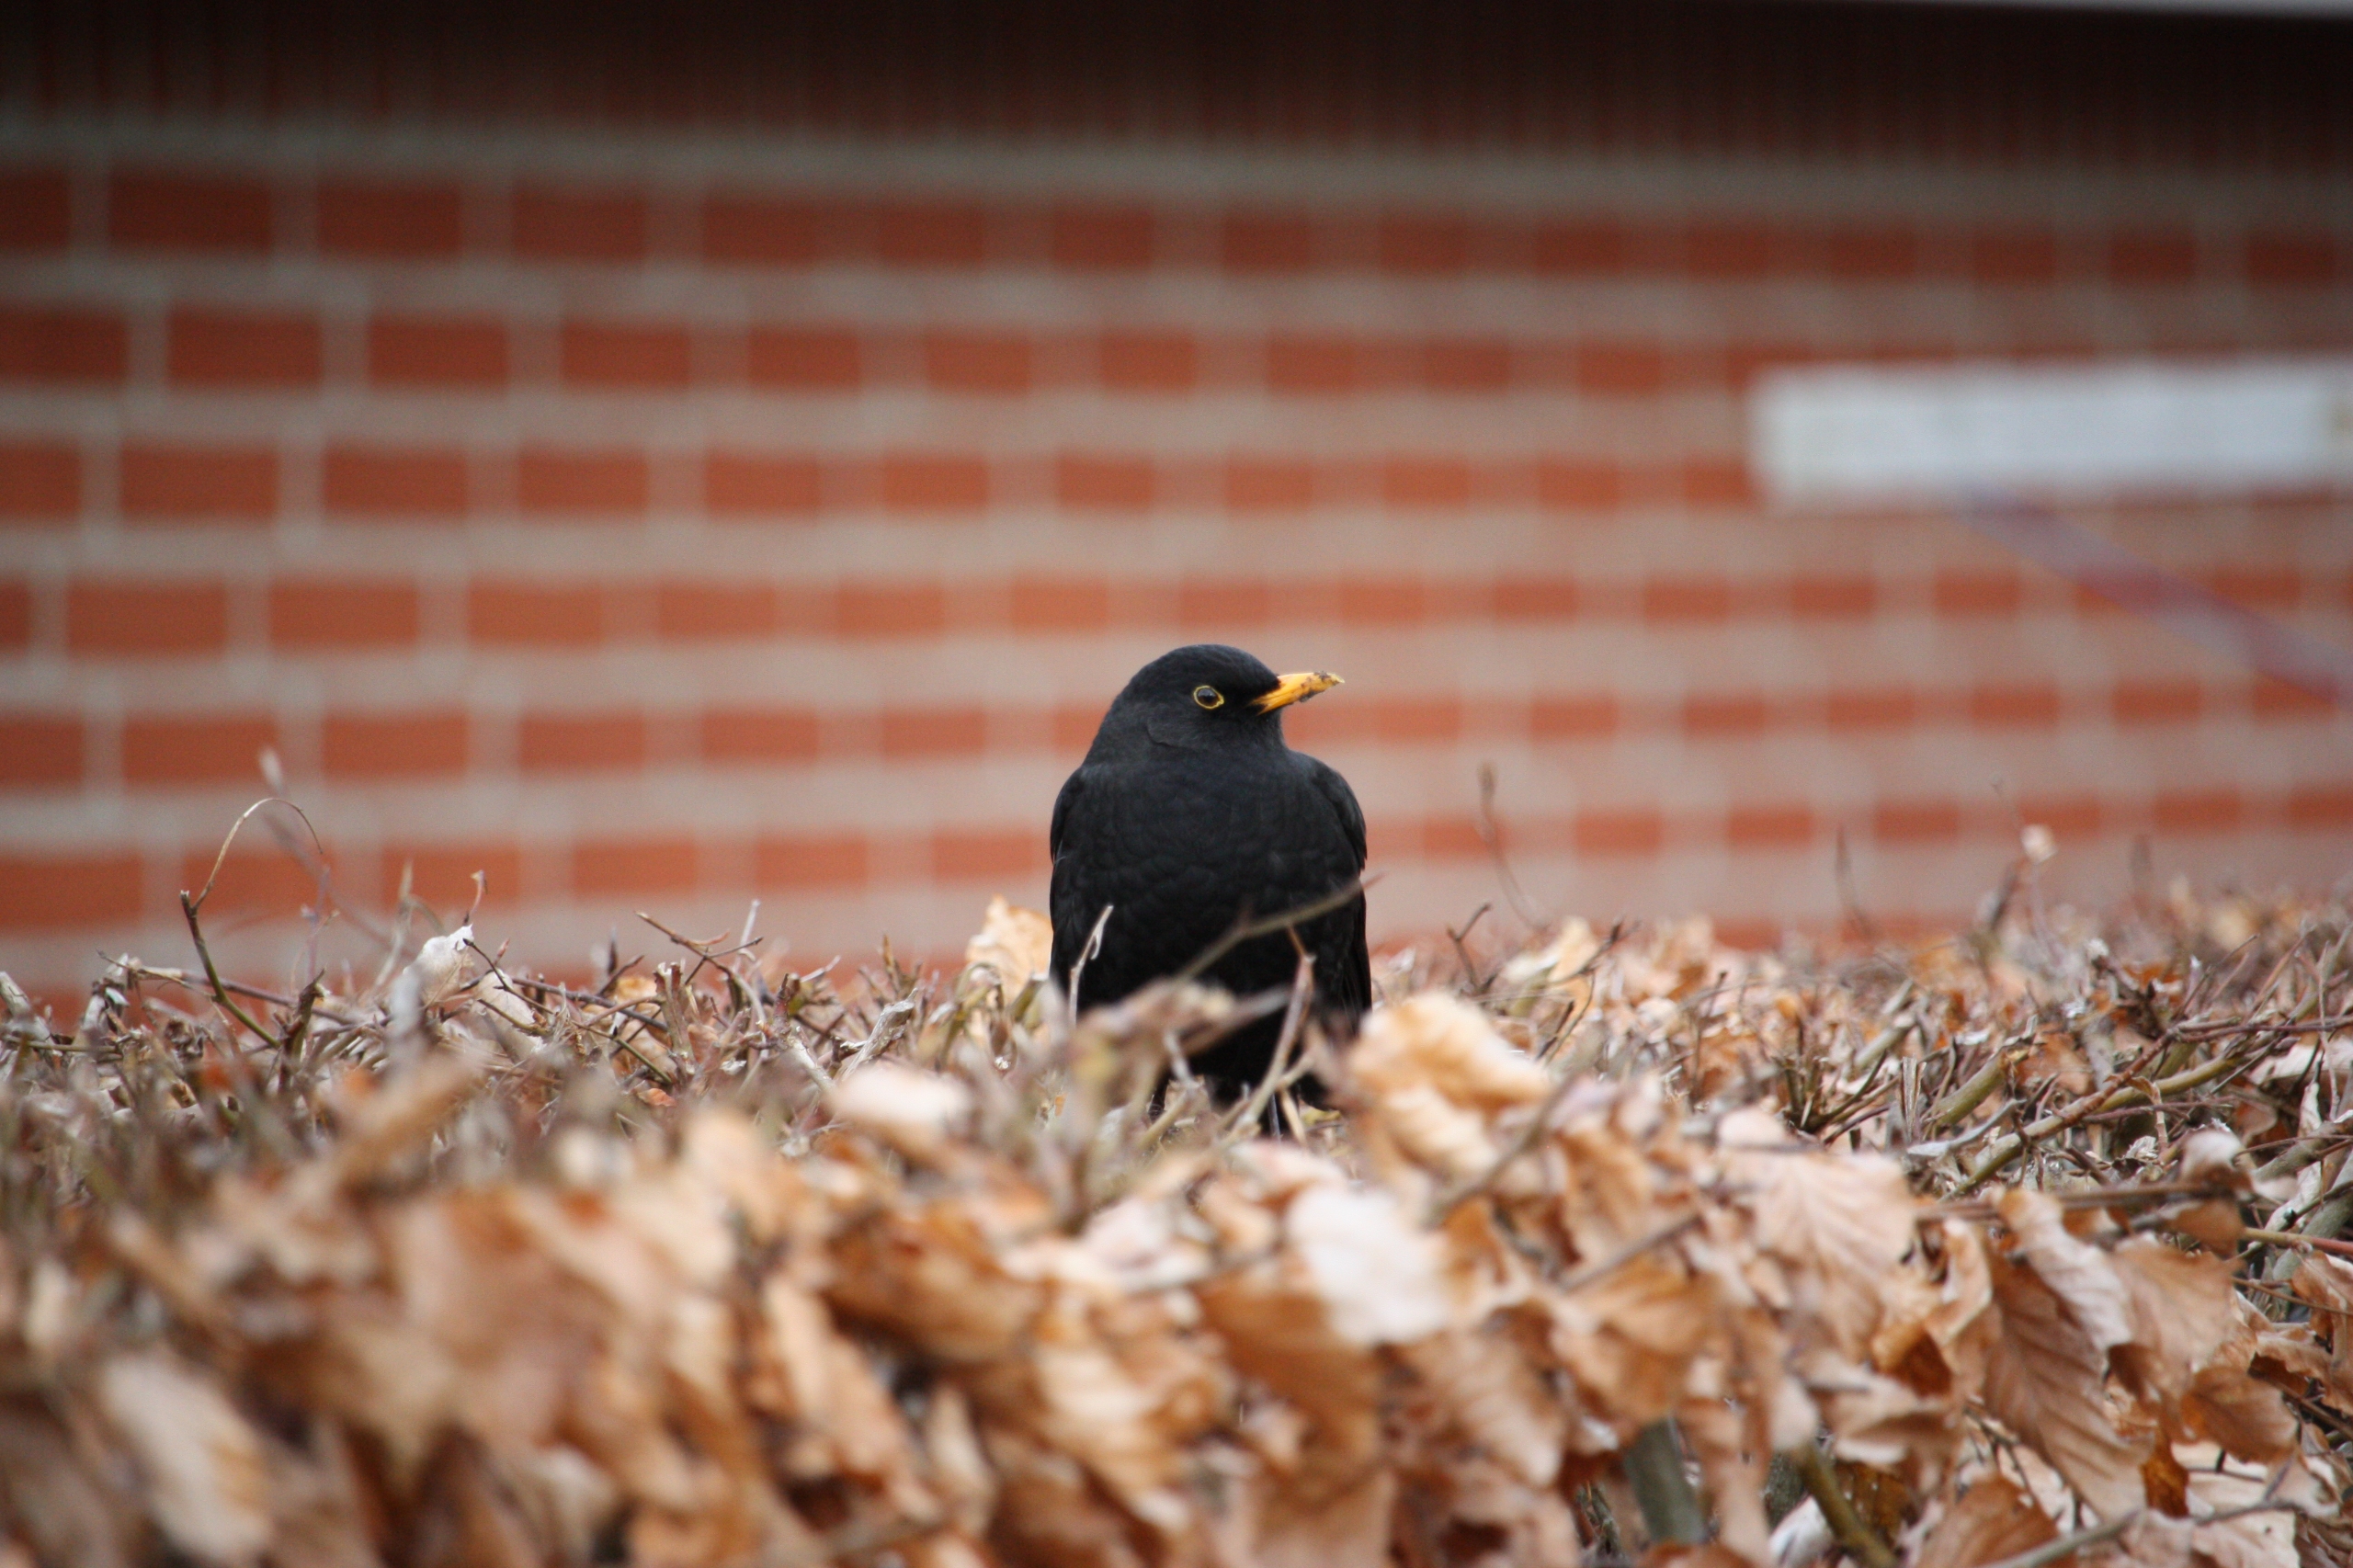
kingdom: Animalia
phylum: Chordata
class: Aves
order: Passeriformes
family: Turdidae
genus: Turdus
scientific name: Turdus merula
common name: Solsort
